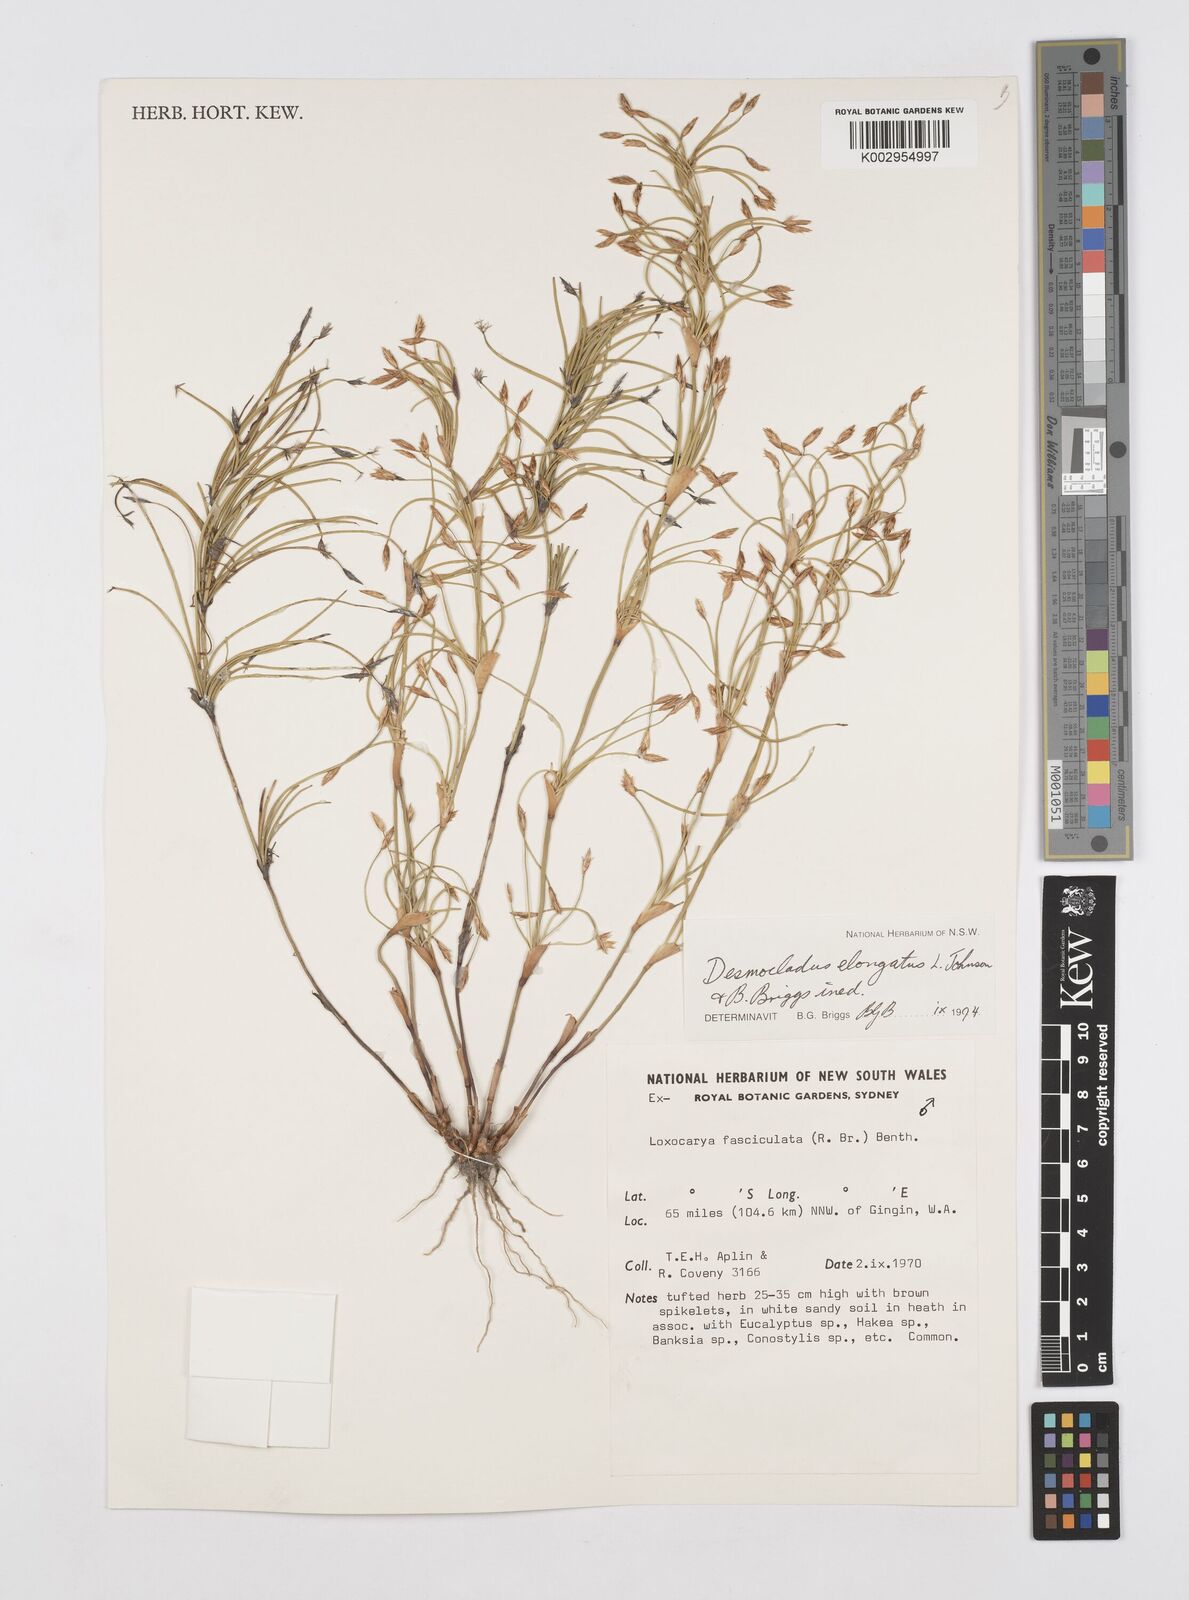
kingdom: Plantae
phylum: Tracheophyta
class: Liliopsida
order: Poales
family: Restionaceae
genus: Desmocladus
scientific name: Desmocladus elongatus
